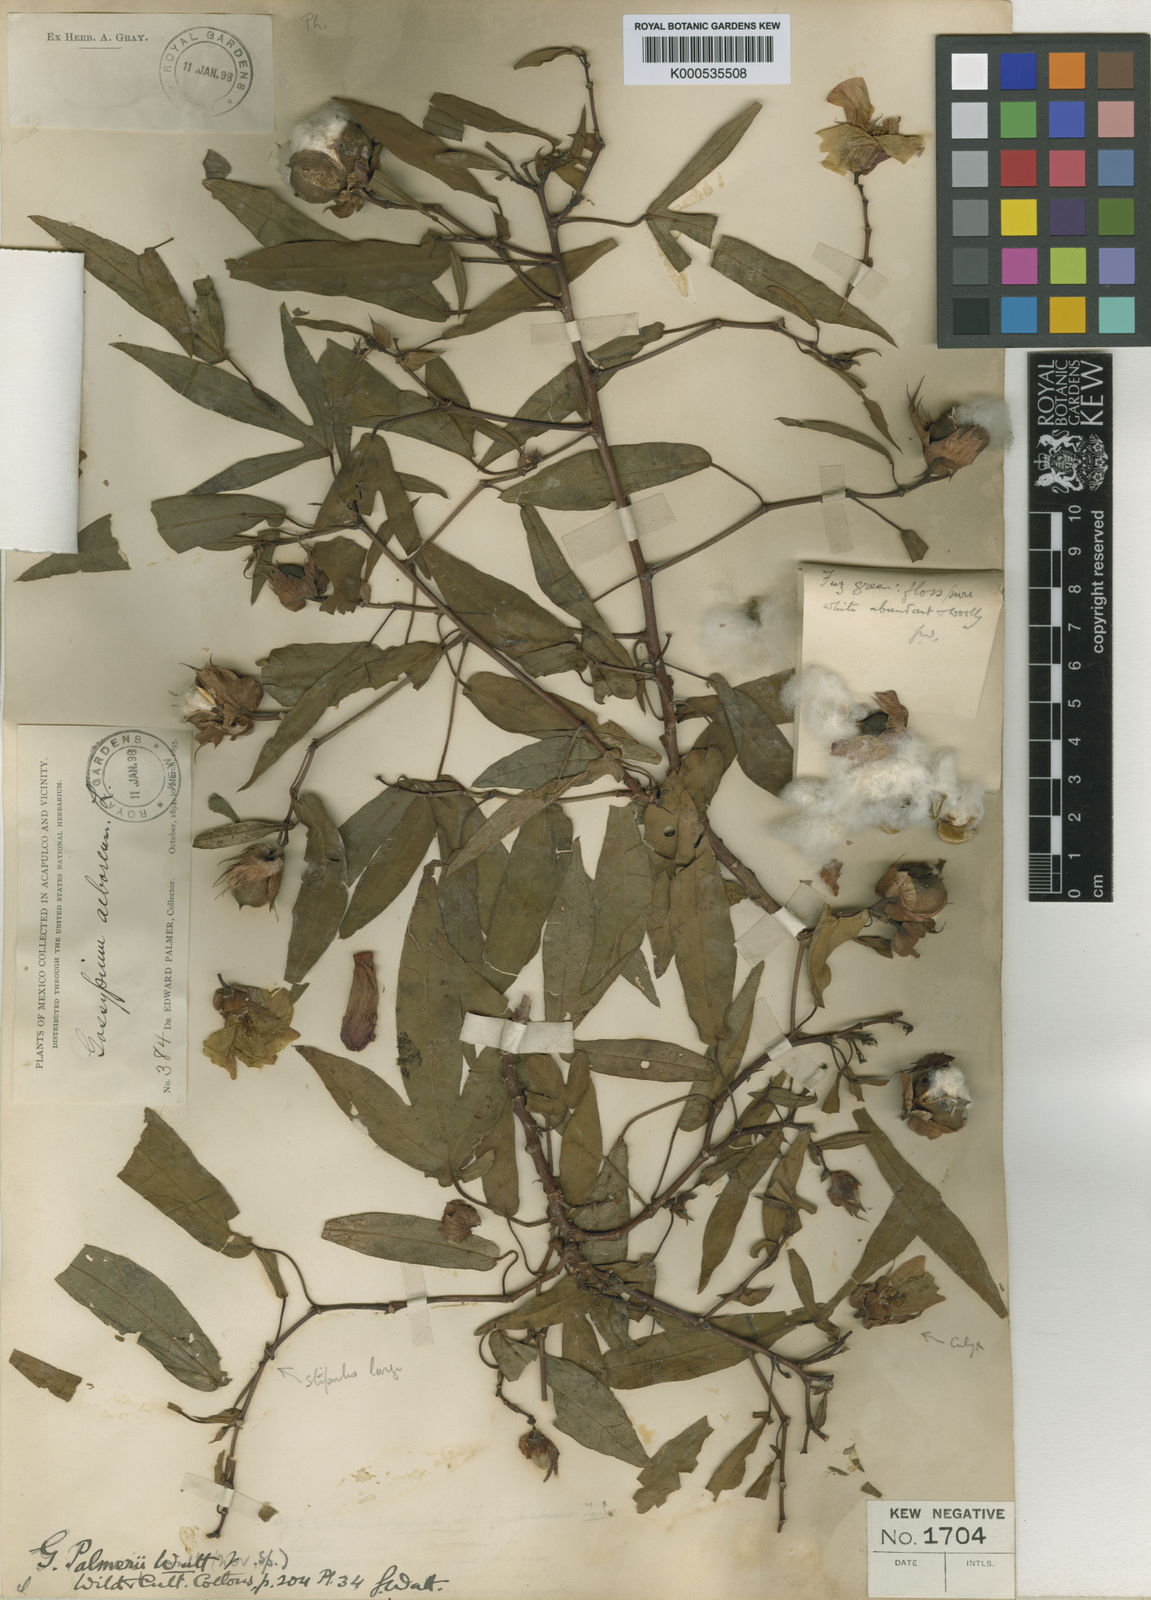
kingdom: Plantae
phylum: Tracheophyta
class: Magnoliopsida
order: Malvales
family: Malvaceae
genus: Gossypium
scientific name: Gossypium hirsutum
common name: Cotton
